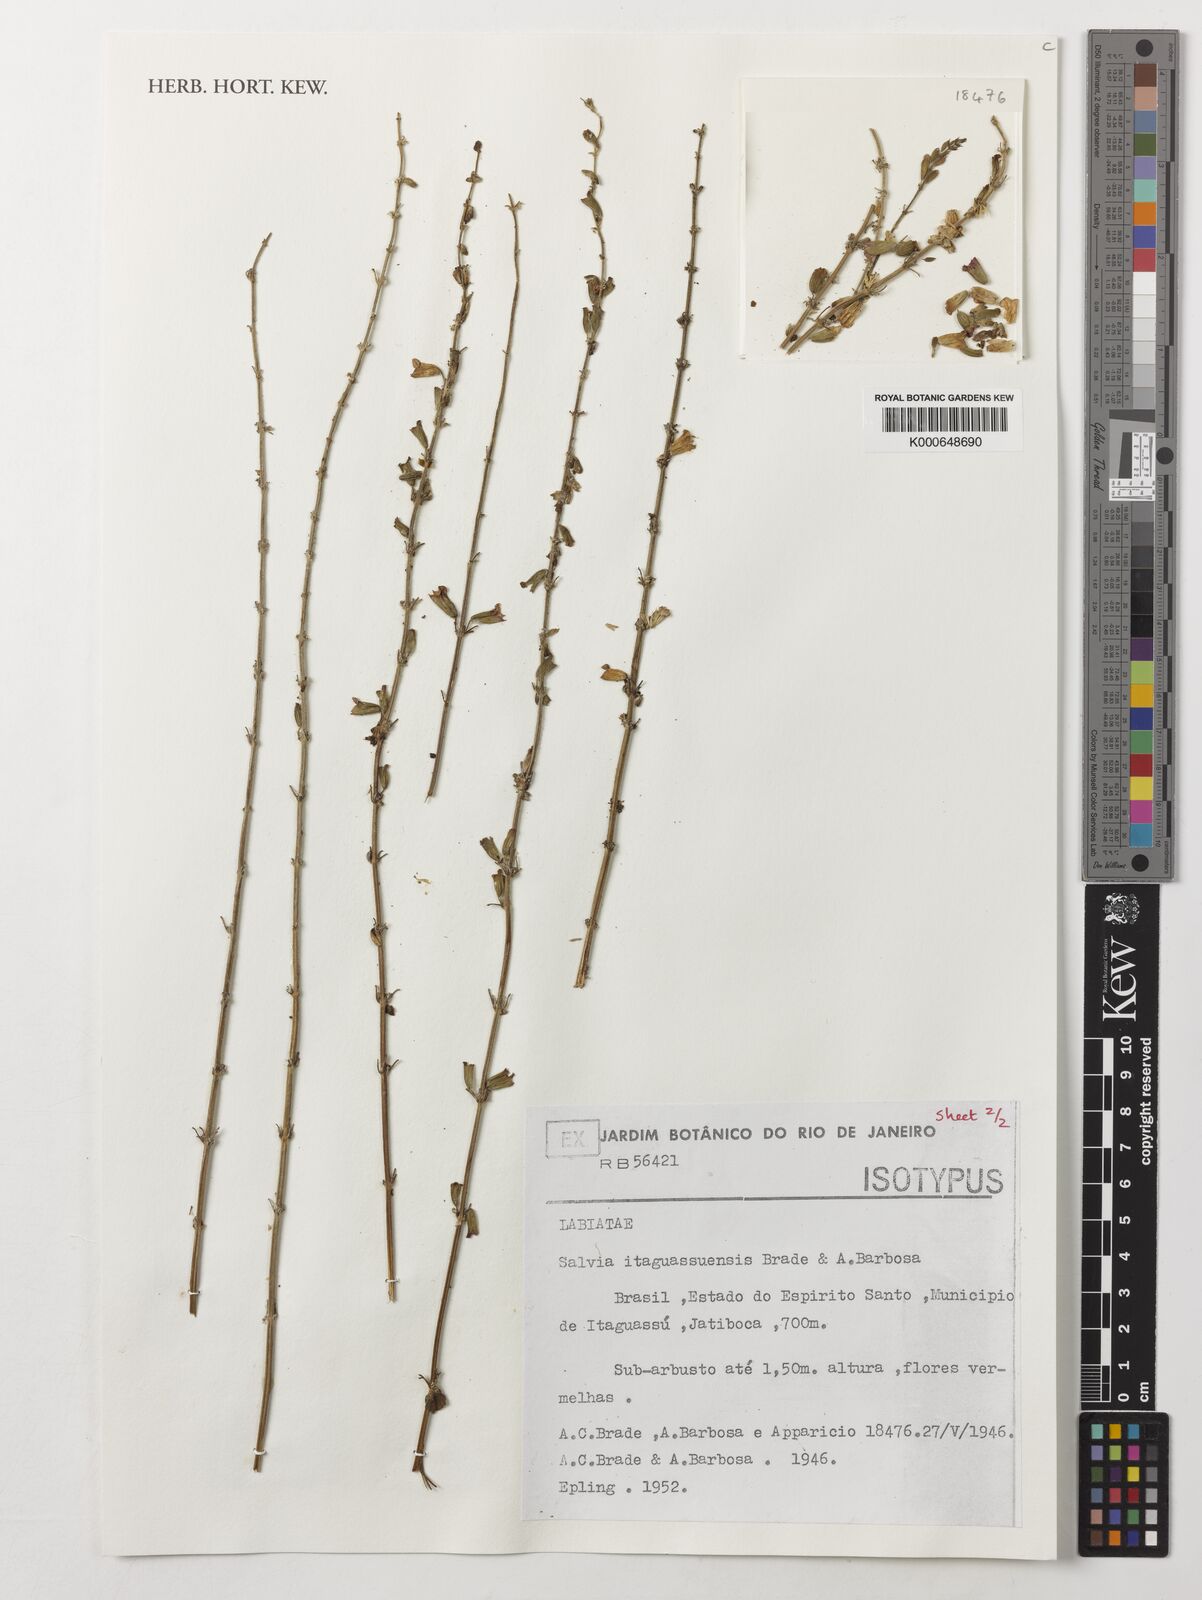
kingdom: Plantae
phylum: Tracheophyta
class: Magnoliopsida
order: Lamiales
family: Lamiaceae
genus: Salvia
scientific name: Salvia itaguassuensis
